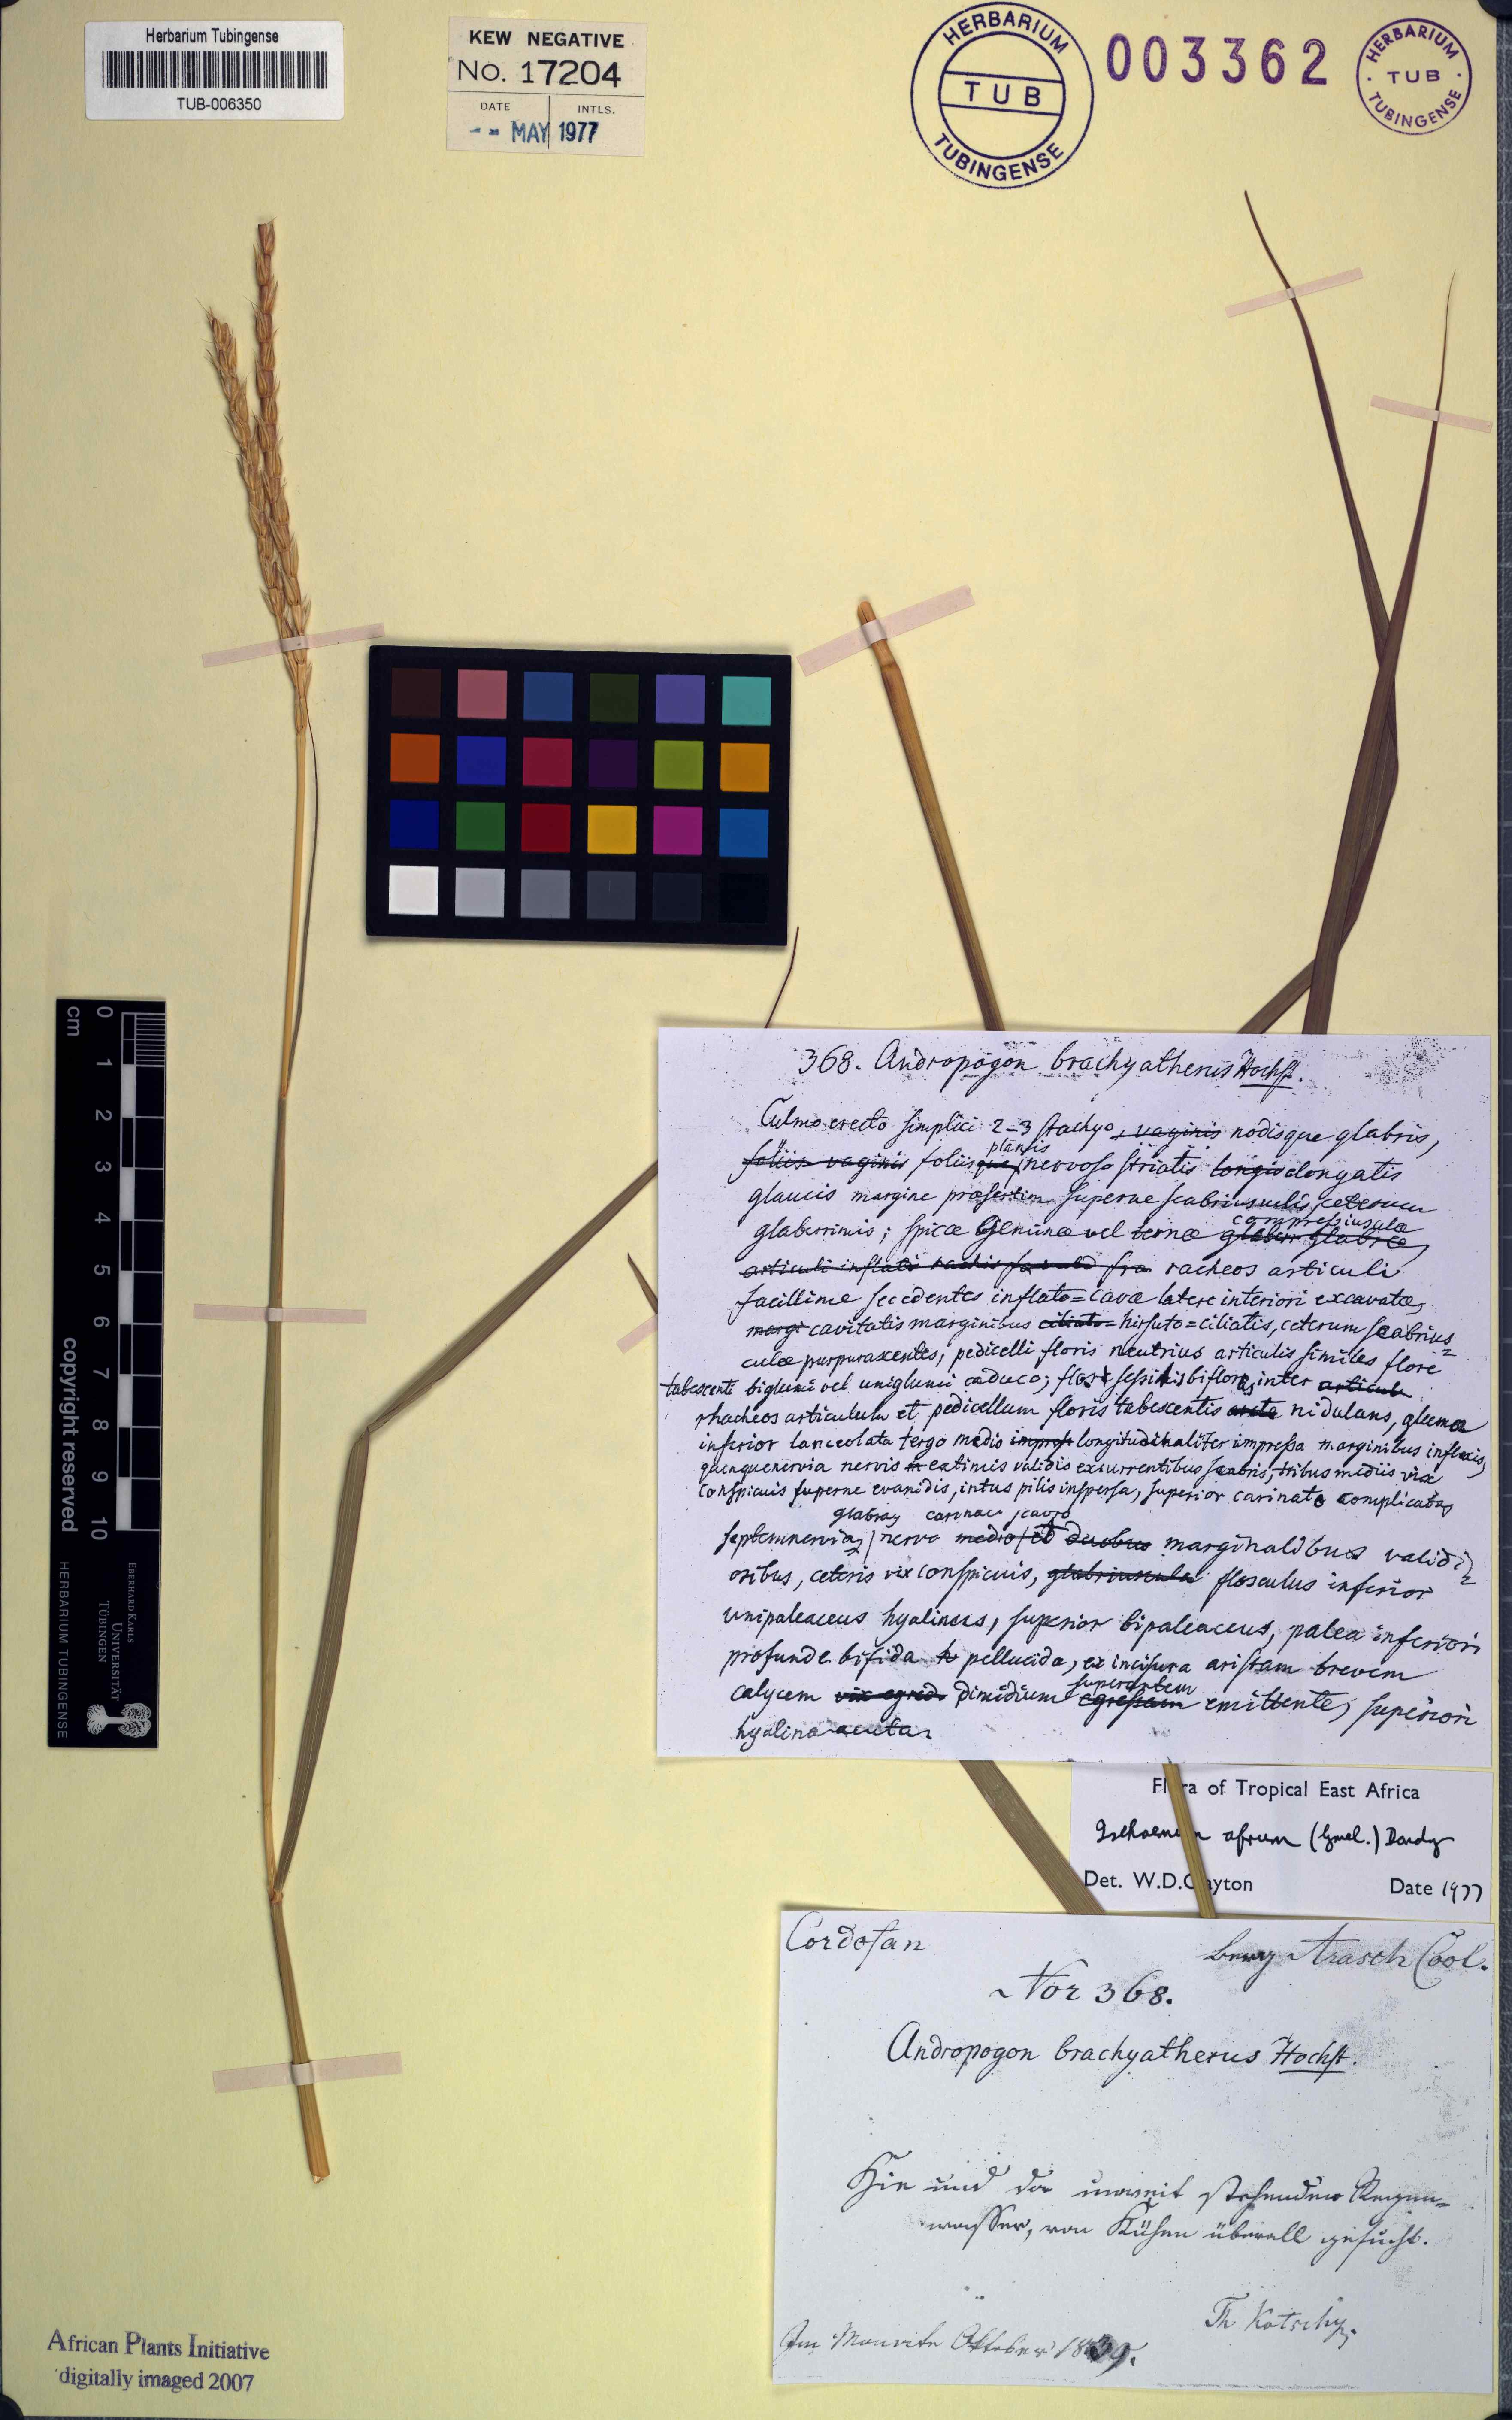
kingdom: Plantae
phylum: Tracheophyta
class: Liliopsida
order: Poales
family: Poaceae
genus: Ischaemum
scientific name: Ischaemum afrum
